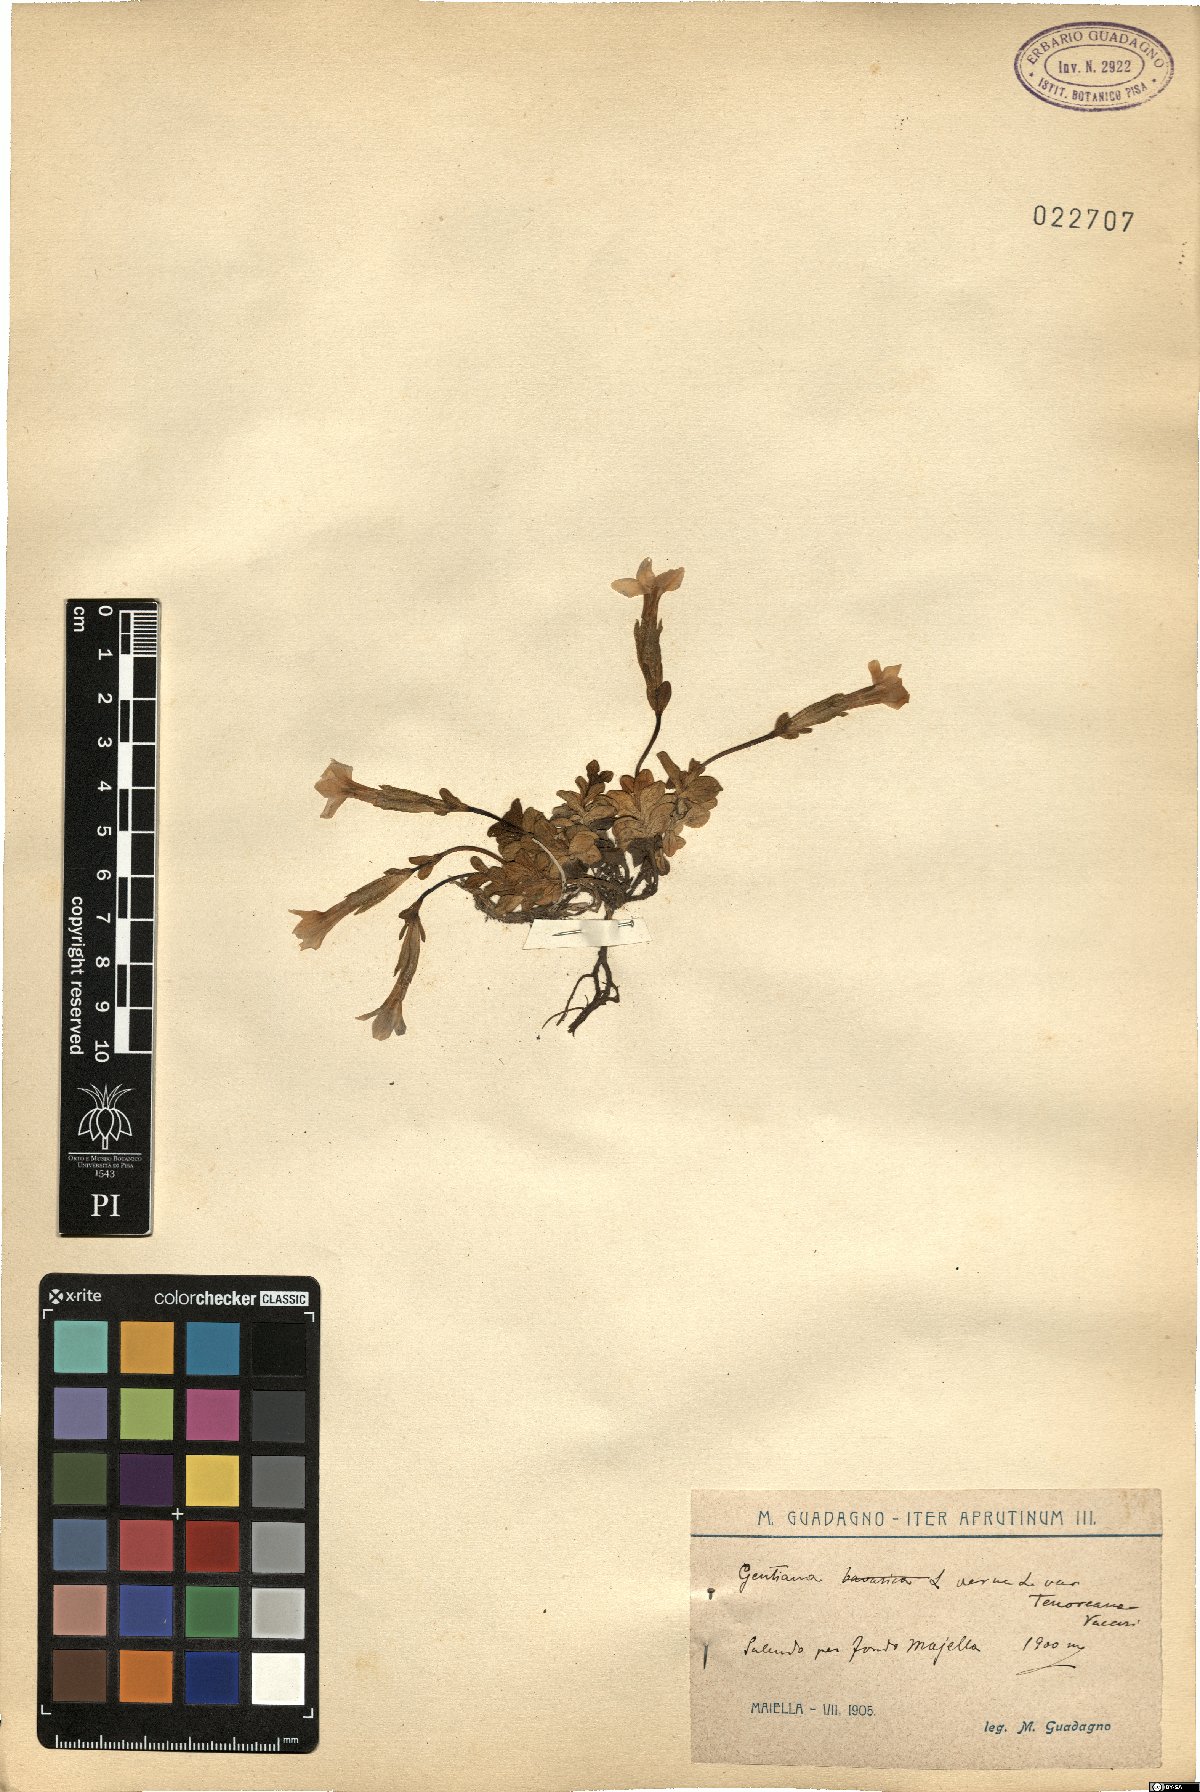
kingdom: Plantae
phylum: Tracheophyta
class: Magnoliopsida
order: Gentianales
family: Gentianaceae
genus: Gentiana
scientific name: Gentiana verna
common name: Spring gentian
